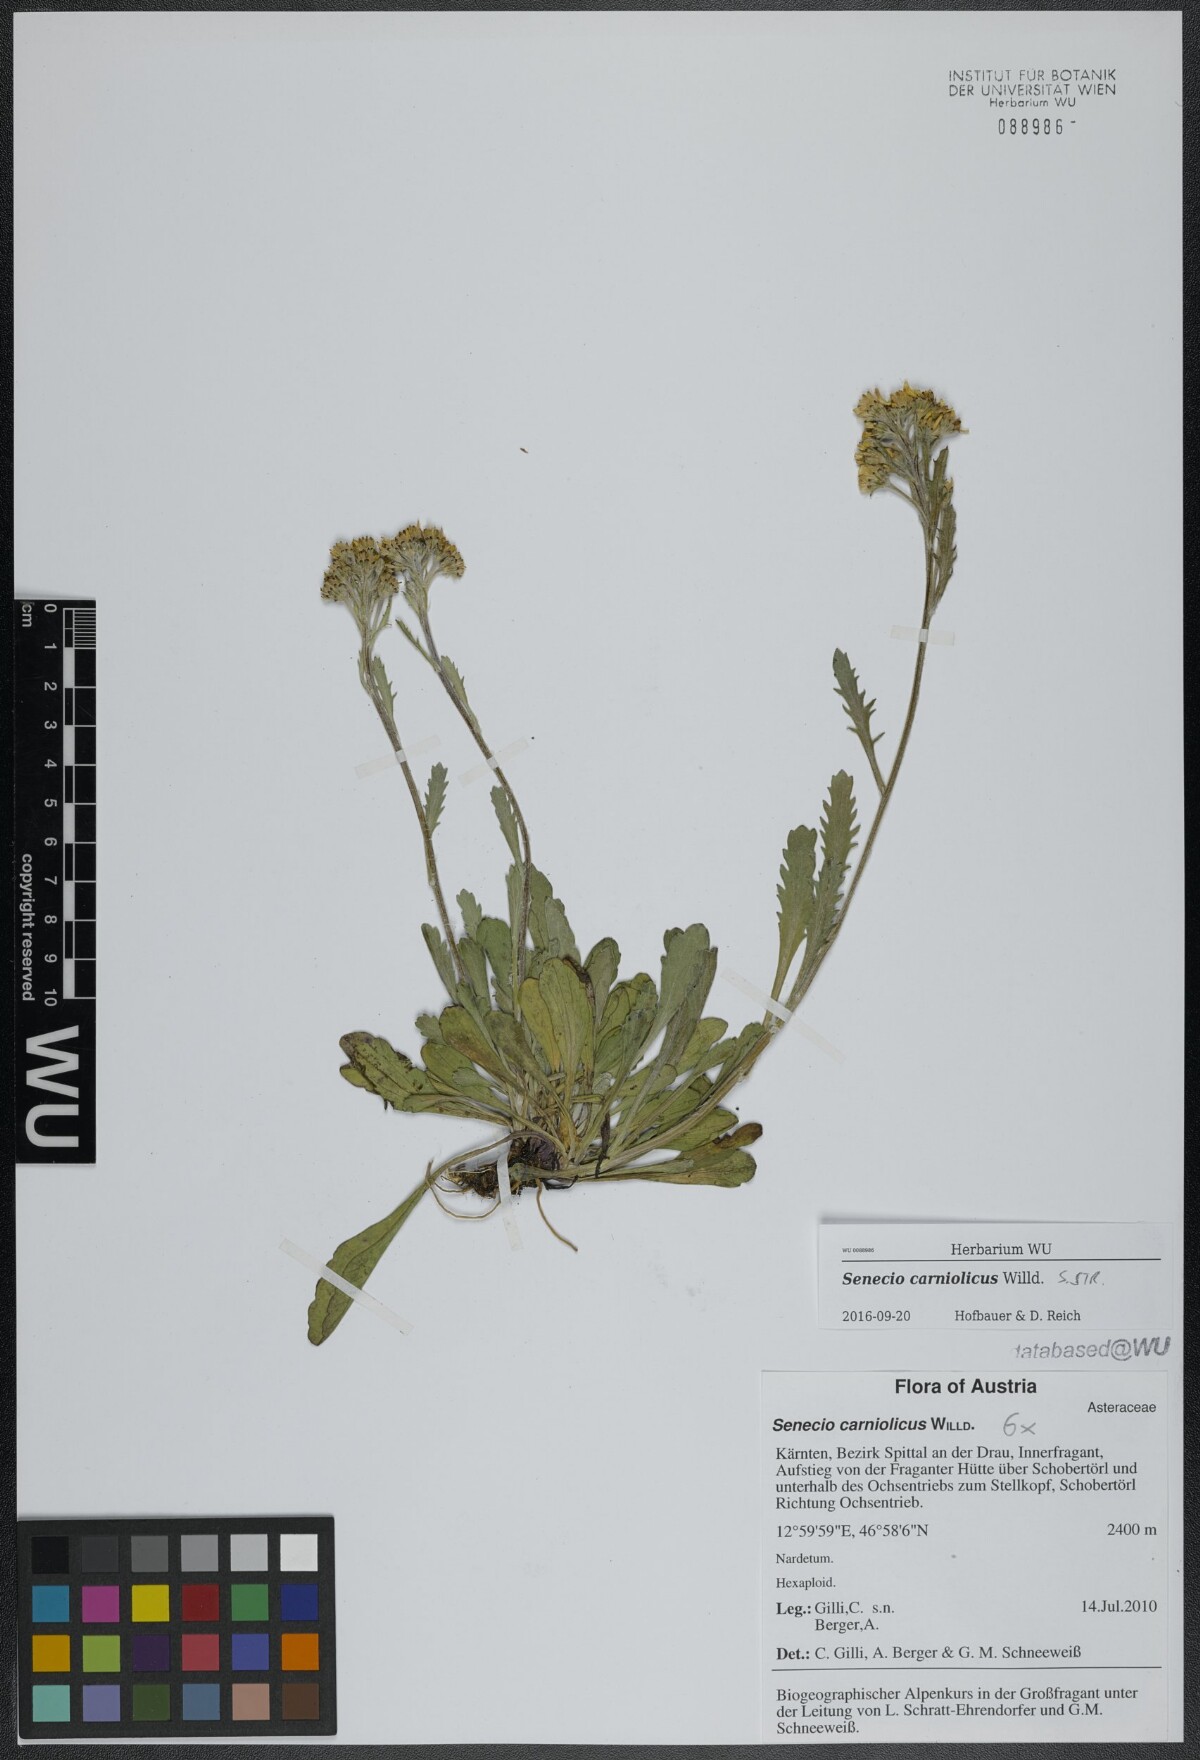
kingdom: Plantae
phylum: Tracheophyta
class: Magnoliopsida
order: Asterales
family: Asteraceae
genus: Jacobaea
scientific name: Jacobaea carniolica
